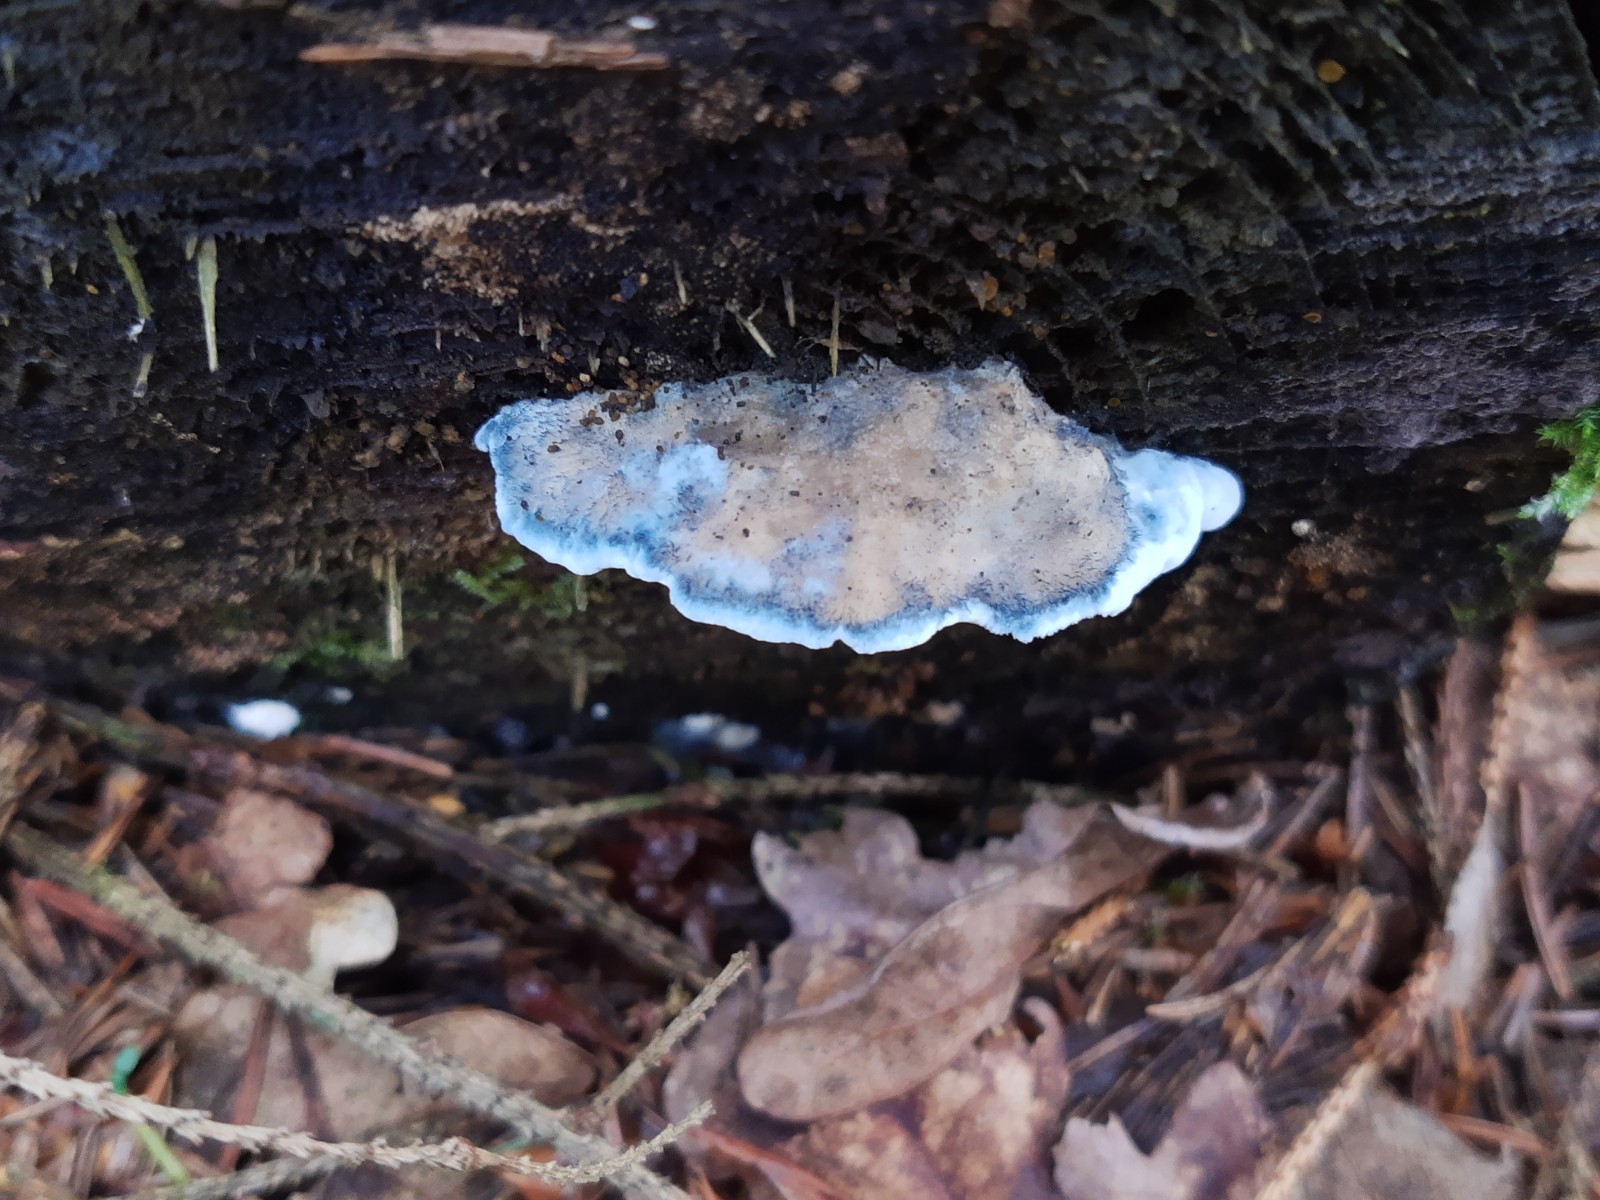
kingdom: Fungi
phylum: Basidiomycota
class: Agaricomycetes
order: Polyporales
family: Polyporaceae
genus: Cyanosporus
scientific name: Cyanosporus caesius
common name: blålig kødporesvamp
